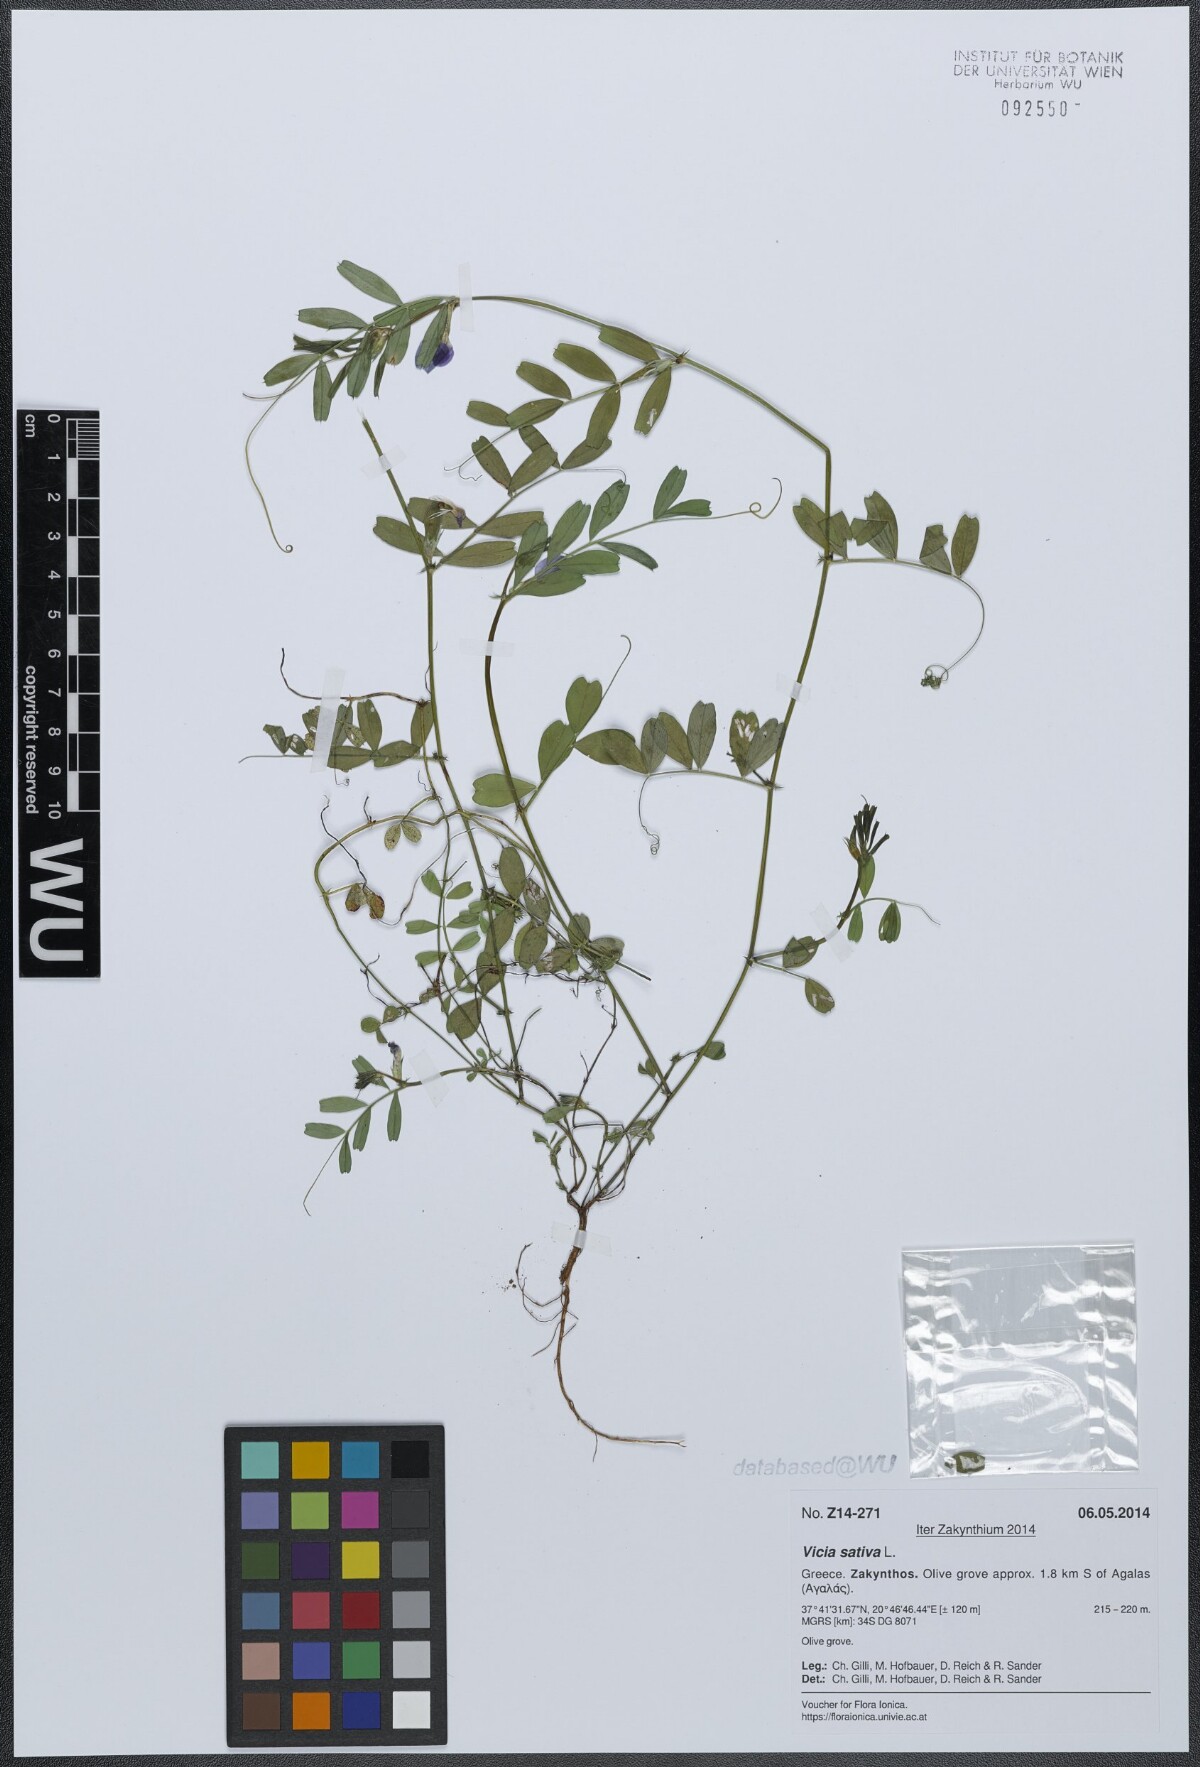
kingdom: Plantae
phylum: Tracheophyta
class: Magnoliopsida
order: Fabales
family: Fabaceae
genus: Vicia
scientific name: Vicia sativa
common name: Garden vetch
